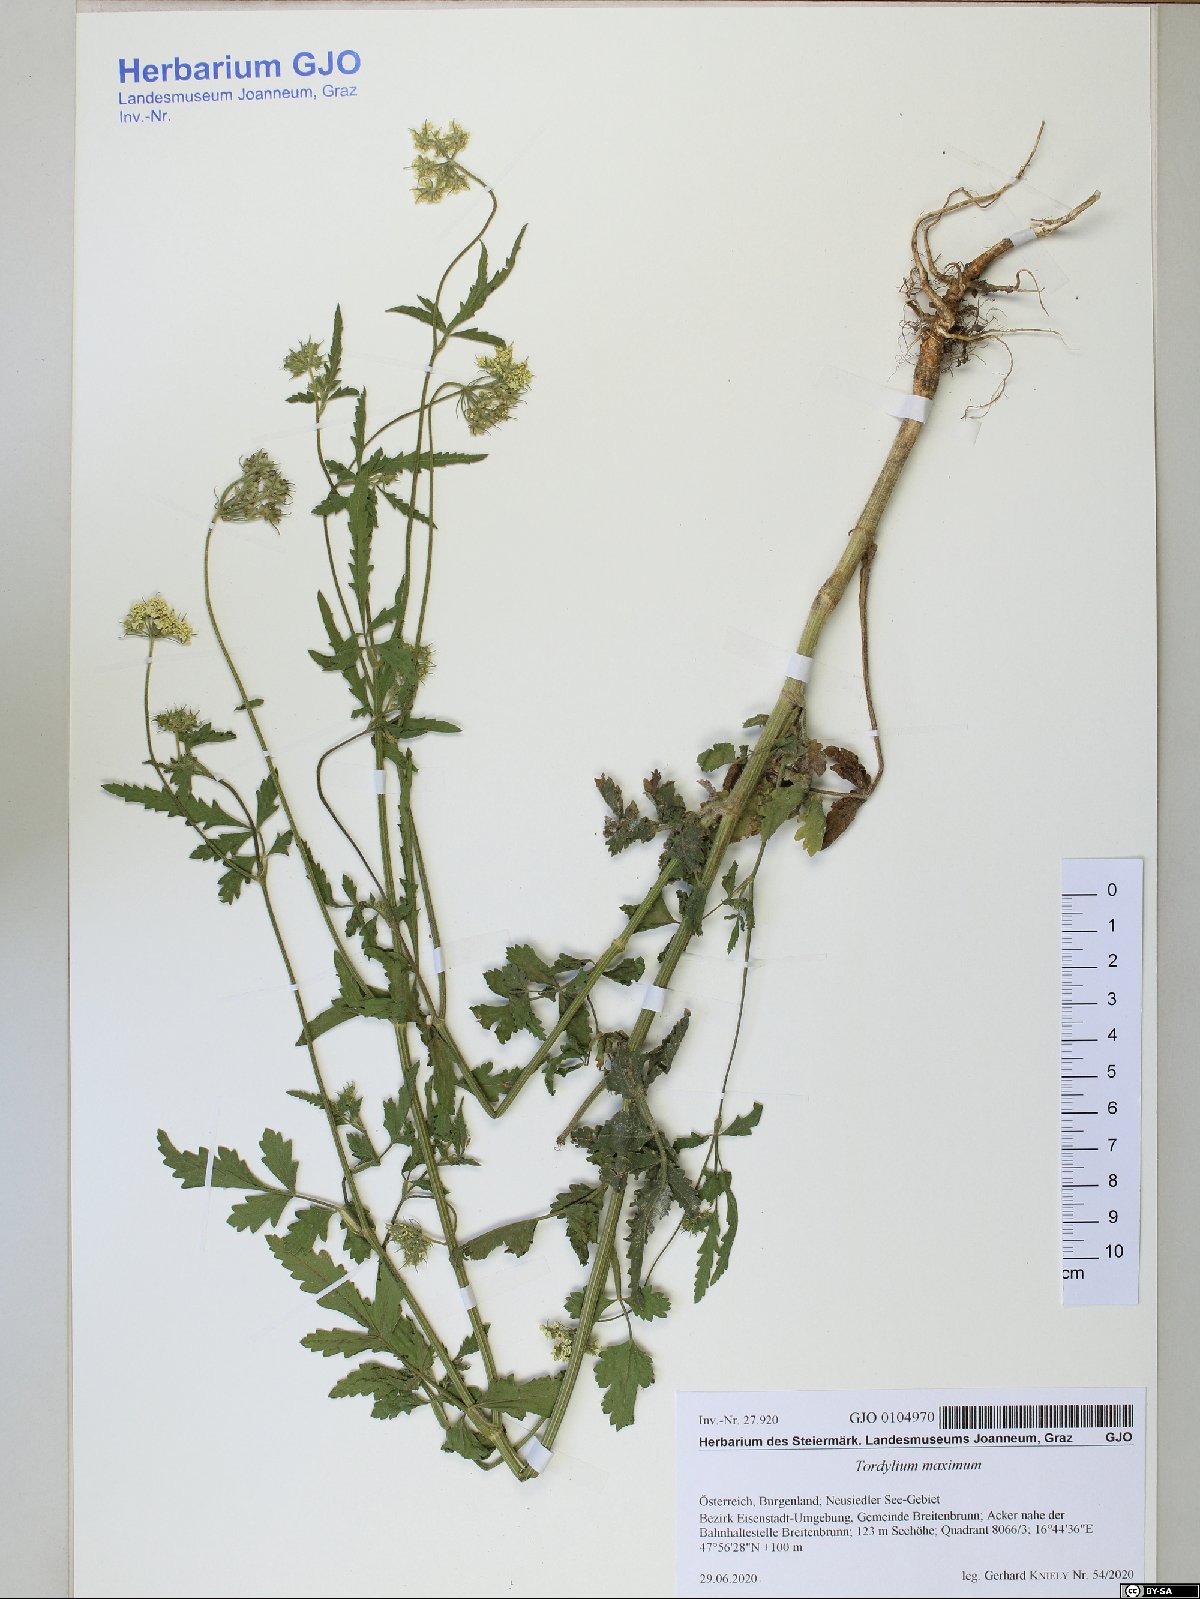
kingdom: Plantae
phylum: Tracheophyta
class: Magnoliopsida
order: Apiales
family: Apiaceae
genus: Tordylium
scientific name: Tordylium maximum
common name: Hartwort
